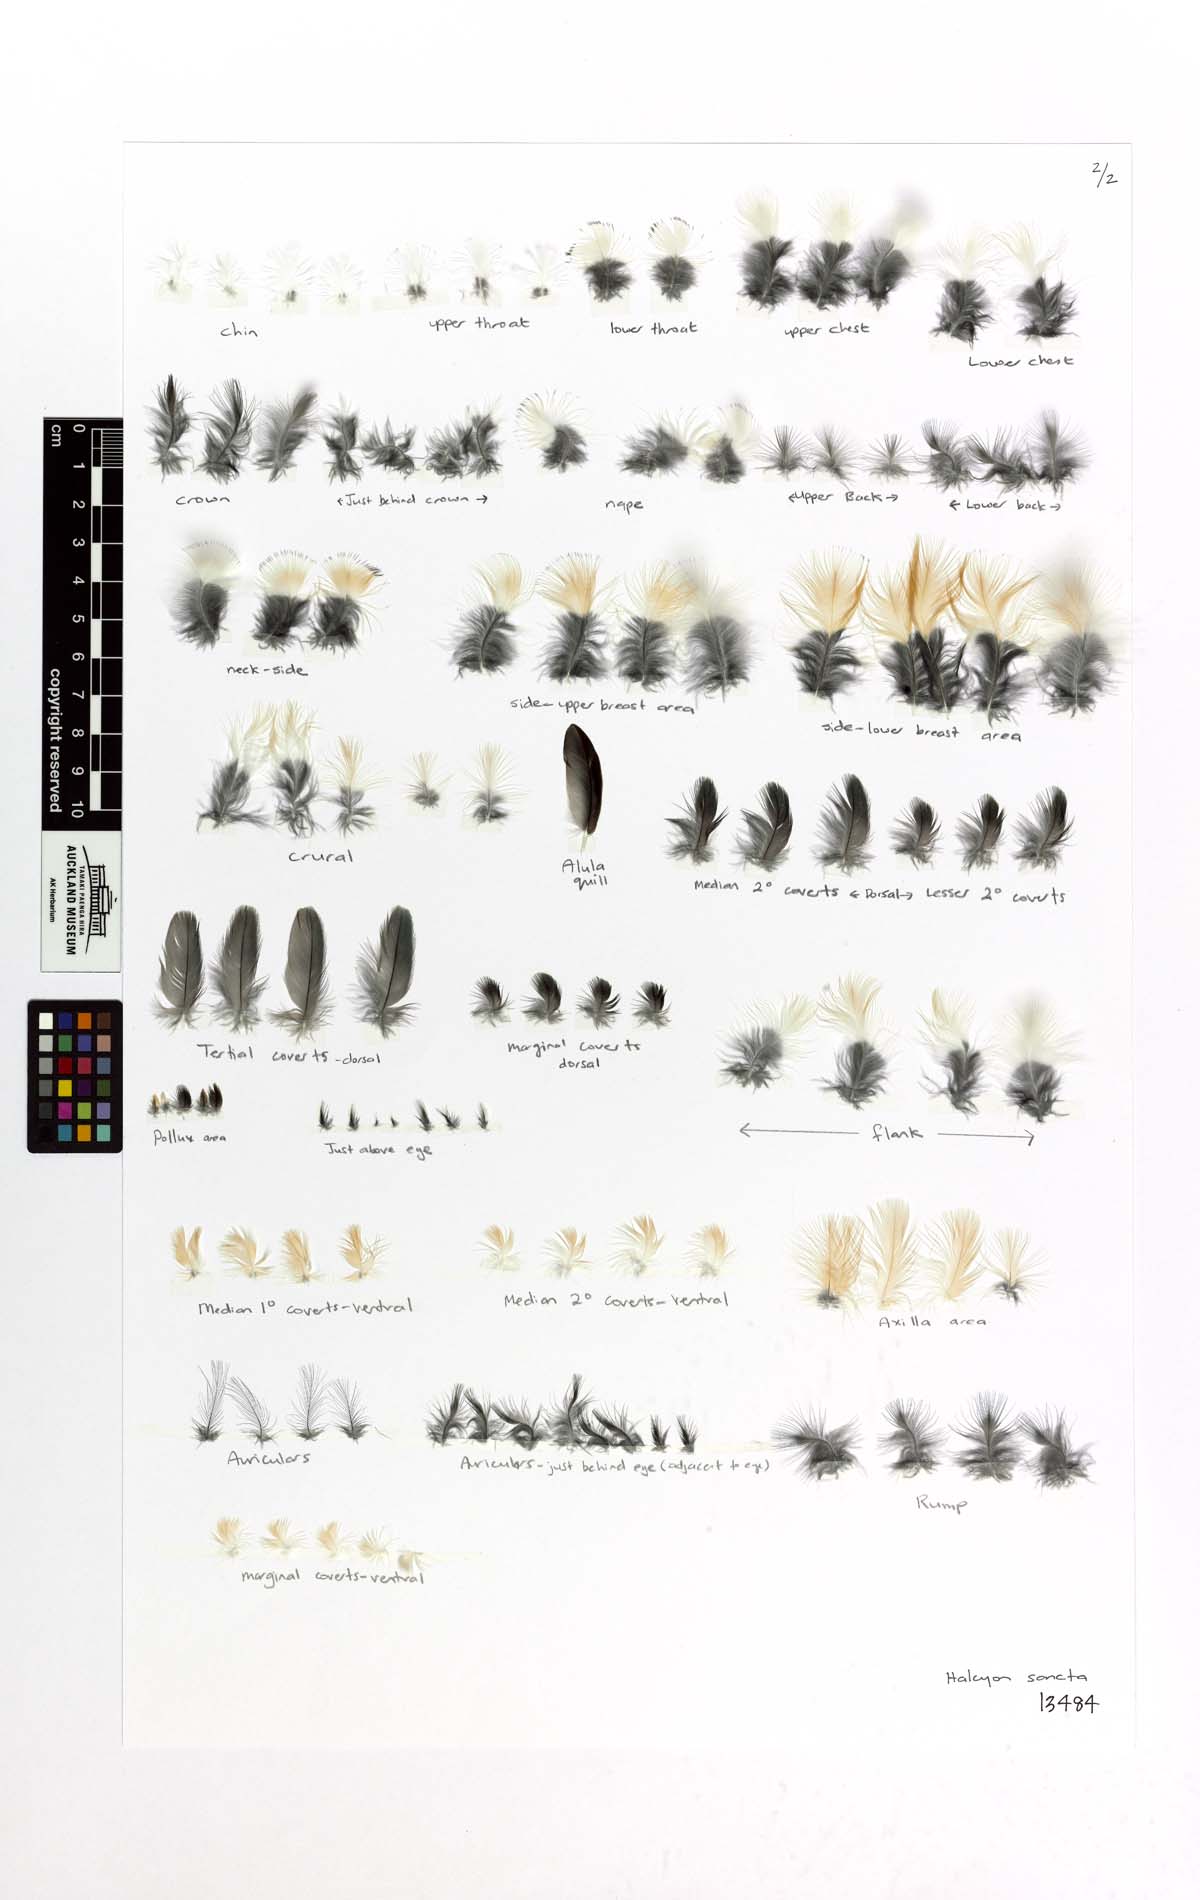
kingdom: Animalia
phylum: Chordata
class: Aves
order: Coraciiformes
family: Alcedinidae
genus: Todiramphus
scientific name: Todiramphus sanctus
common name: Sacred kingfisher
